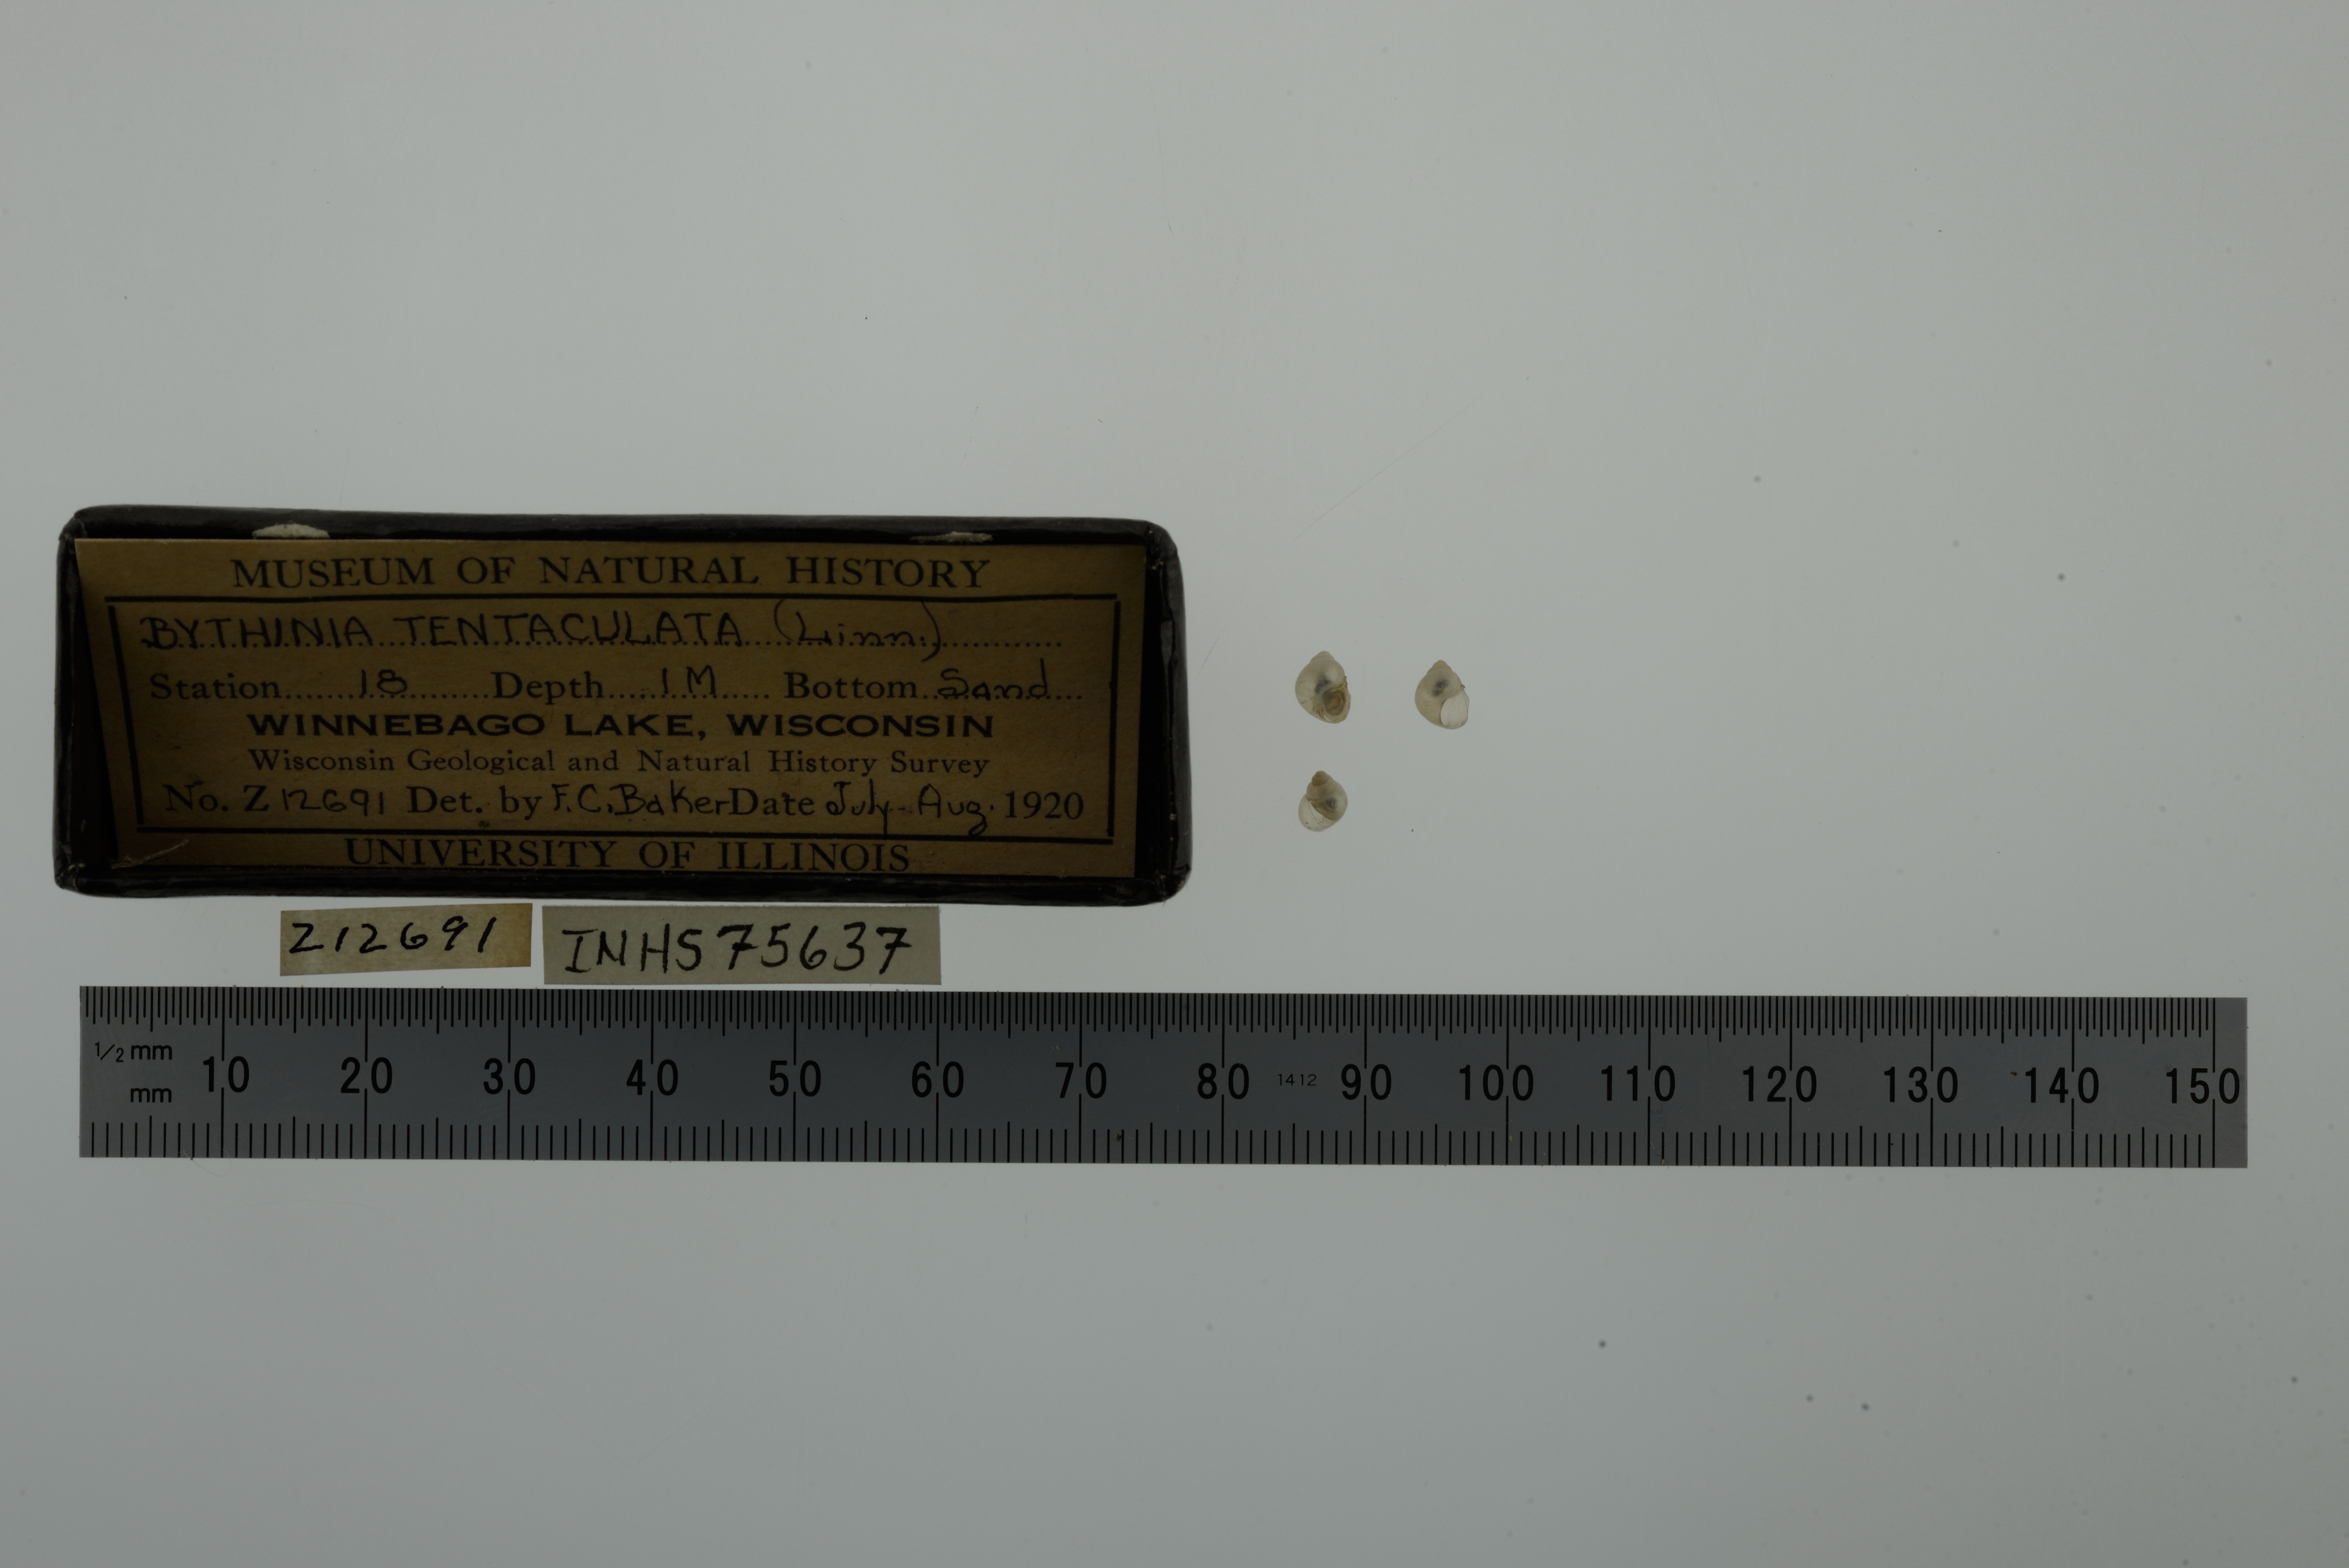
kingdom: Animalia
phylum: Mollusca
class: Gastropoda
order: Littorinimorpha
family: Bithyniidae
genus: Bithynia
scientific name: Bithynia tentaculata
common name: Common bithynia
